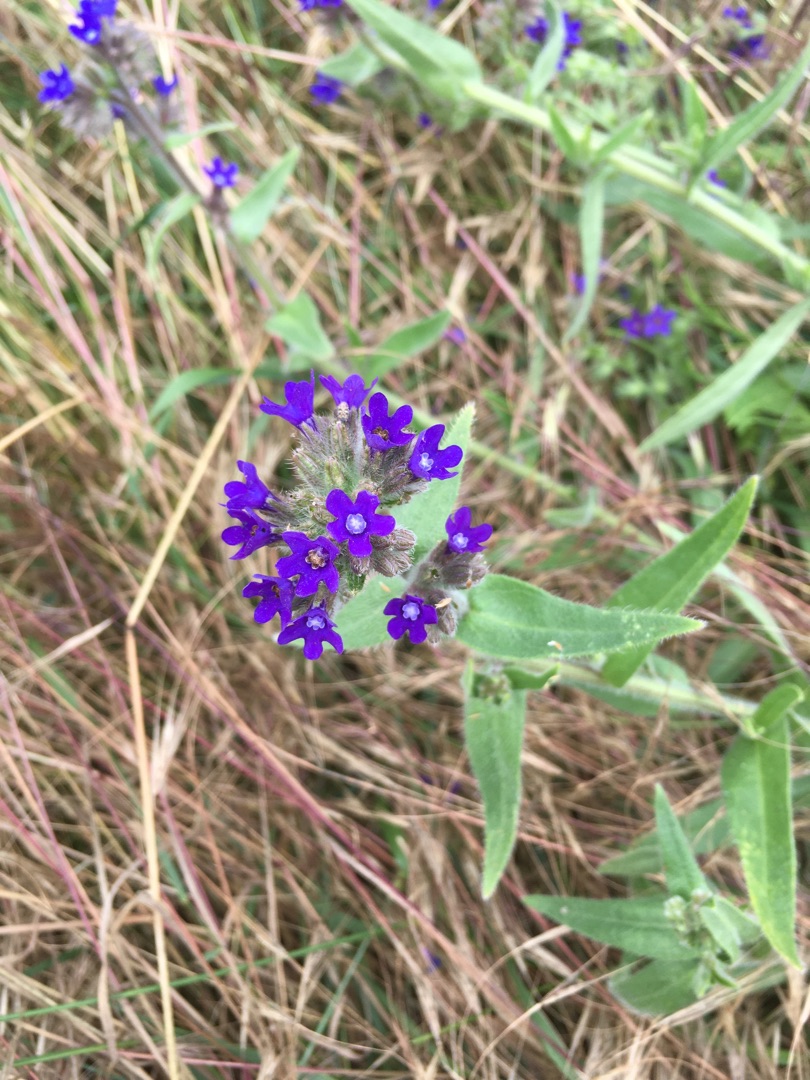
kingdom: Plantae
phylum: Tracheophyta
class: Magnoliopsida
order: Boraginales
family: Boraginaceae
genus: Anchusa
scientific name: Anchusa officinalis
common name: Læge-oksetunge
